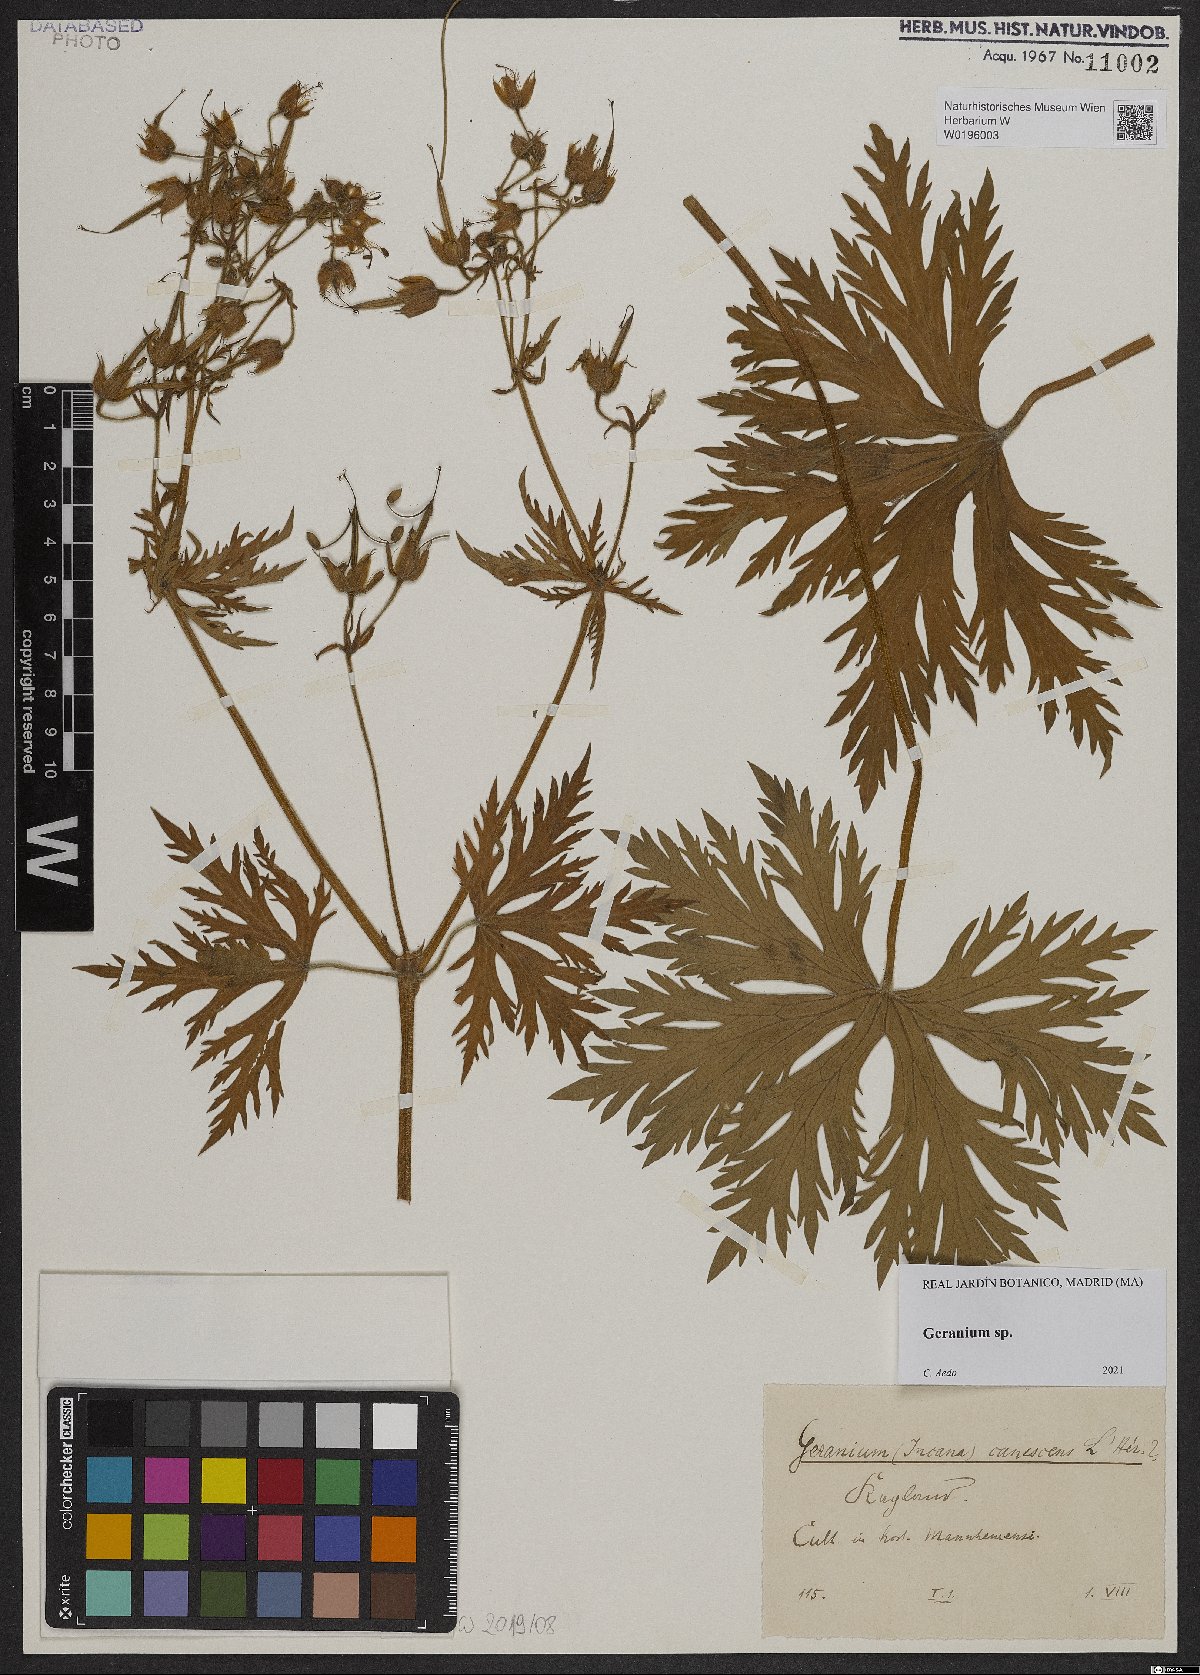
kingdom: Plantae
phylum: Tracheophyta
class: Magnoliopsida
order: Geraniales
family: Geraniaceae
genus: Geranium
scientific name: Geranium
